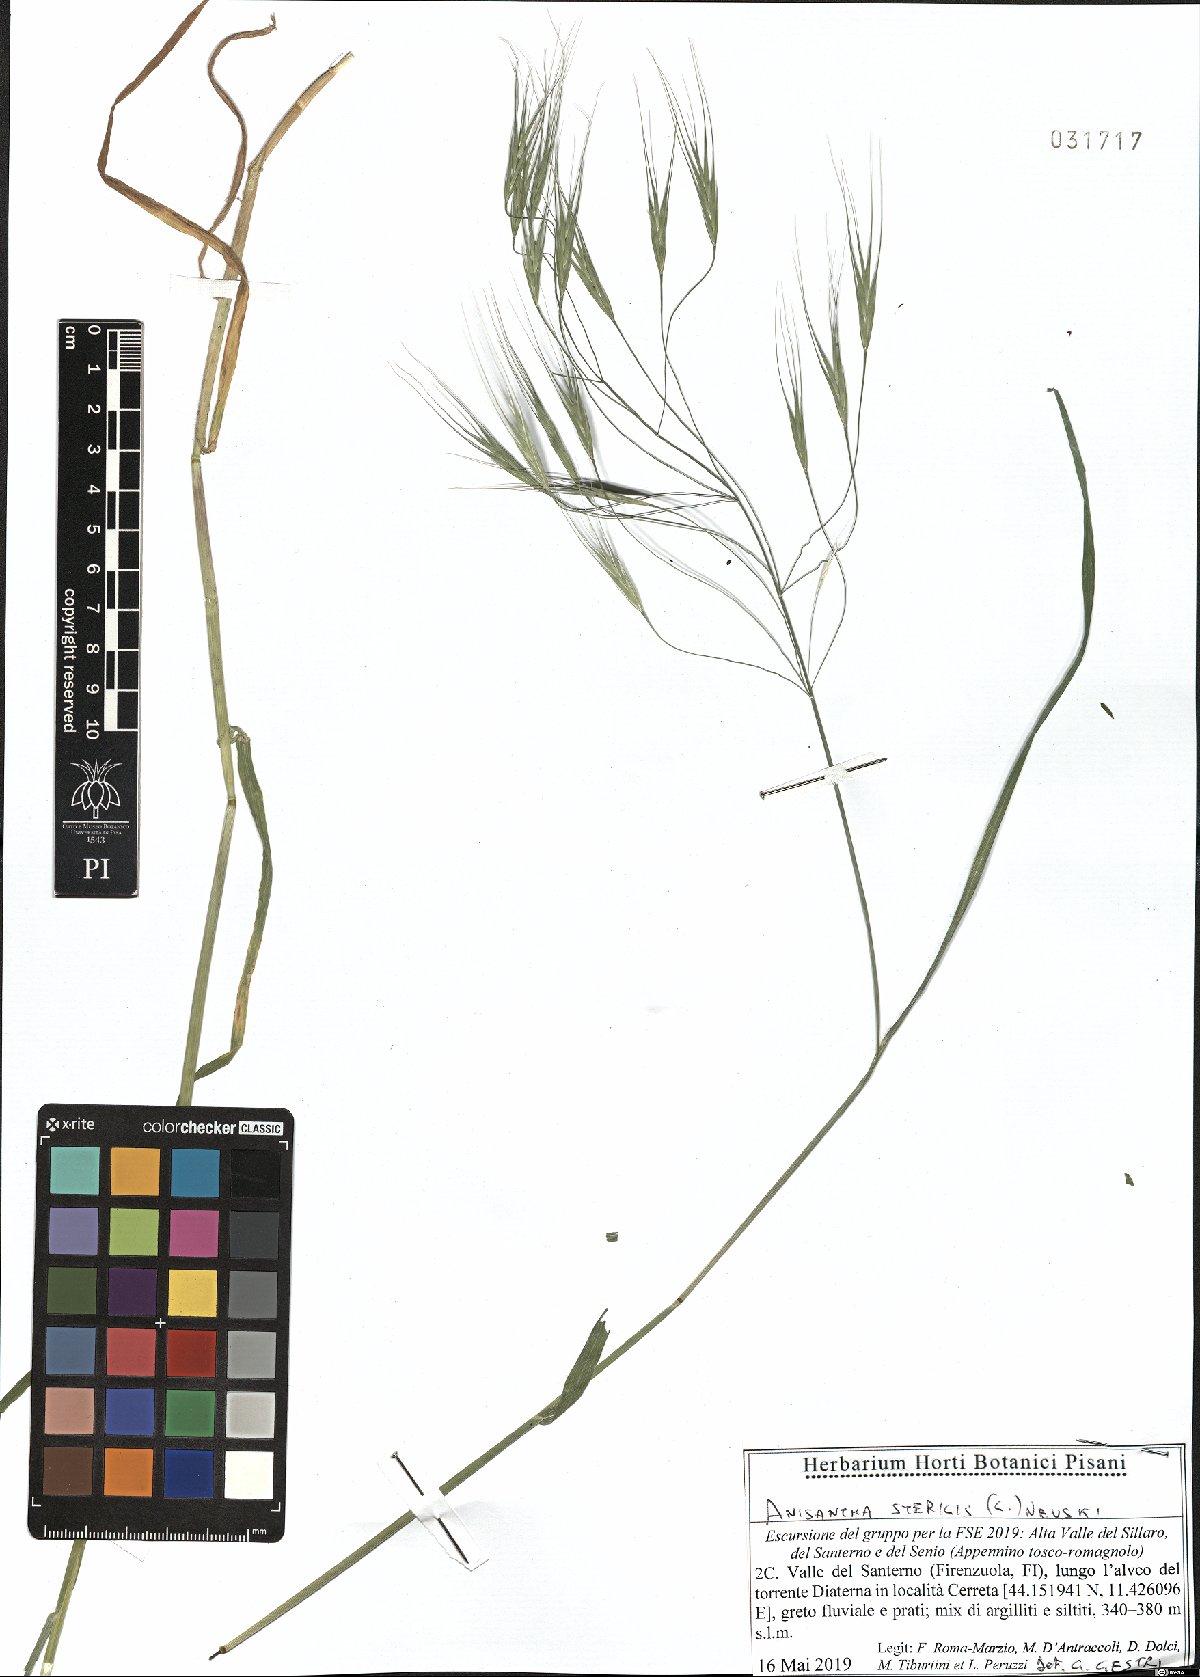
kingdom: Plantae
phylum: Tracheophyta
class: Liliopsida
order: Poales
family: Poaceae
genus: Bromus
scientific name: Bromus sterilis
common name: Poverty brome
